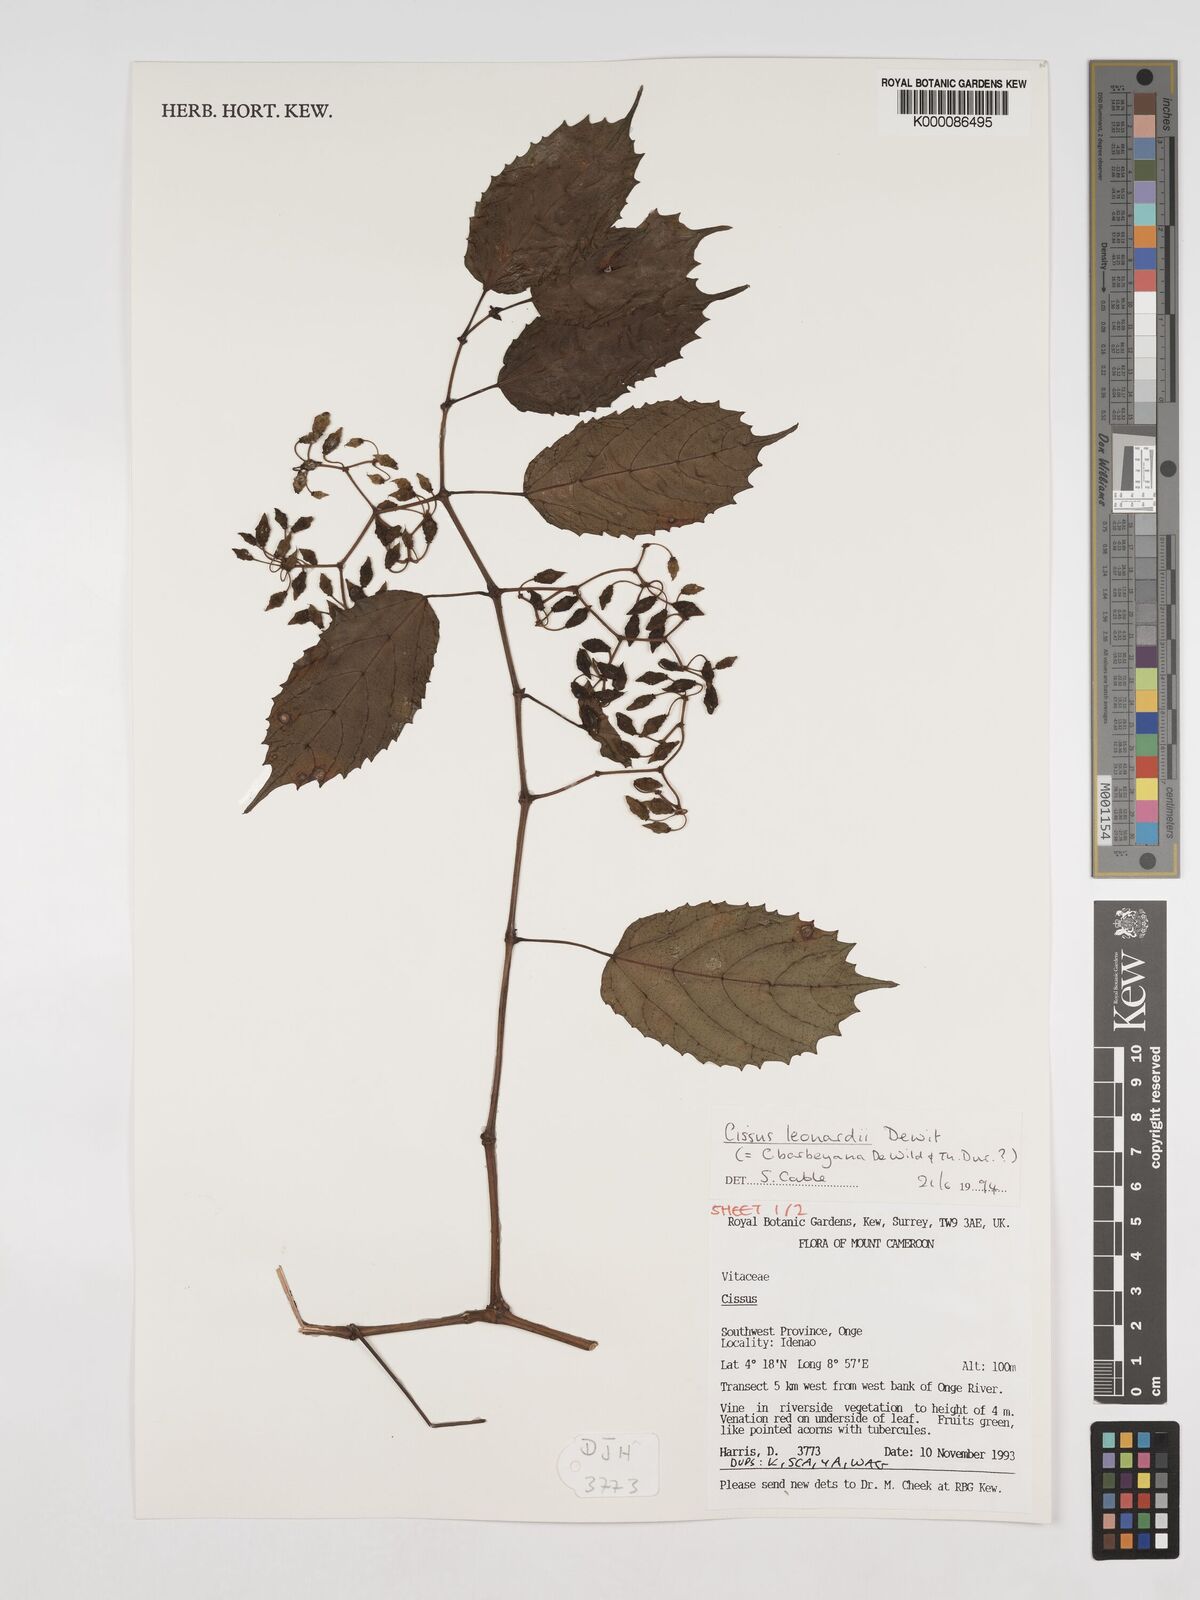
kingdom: Plantae
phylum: Tracheophyta
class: Magnoliopsida
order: Vitales
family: Vitaceae
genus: Cissus
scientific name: Cissus leonardii
